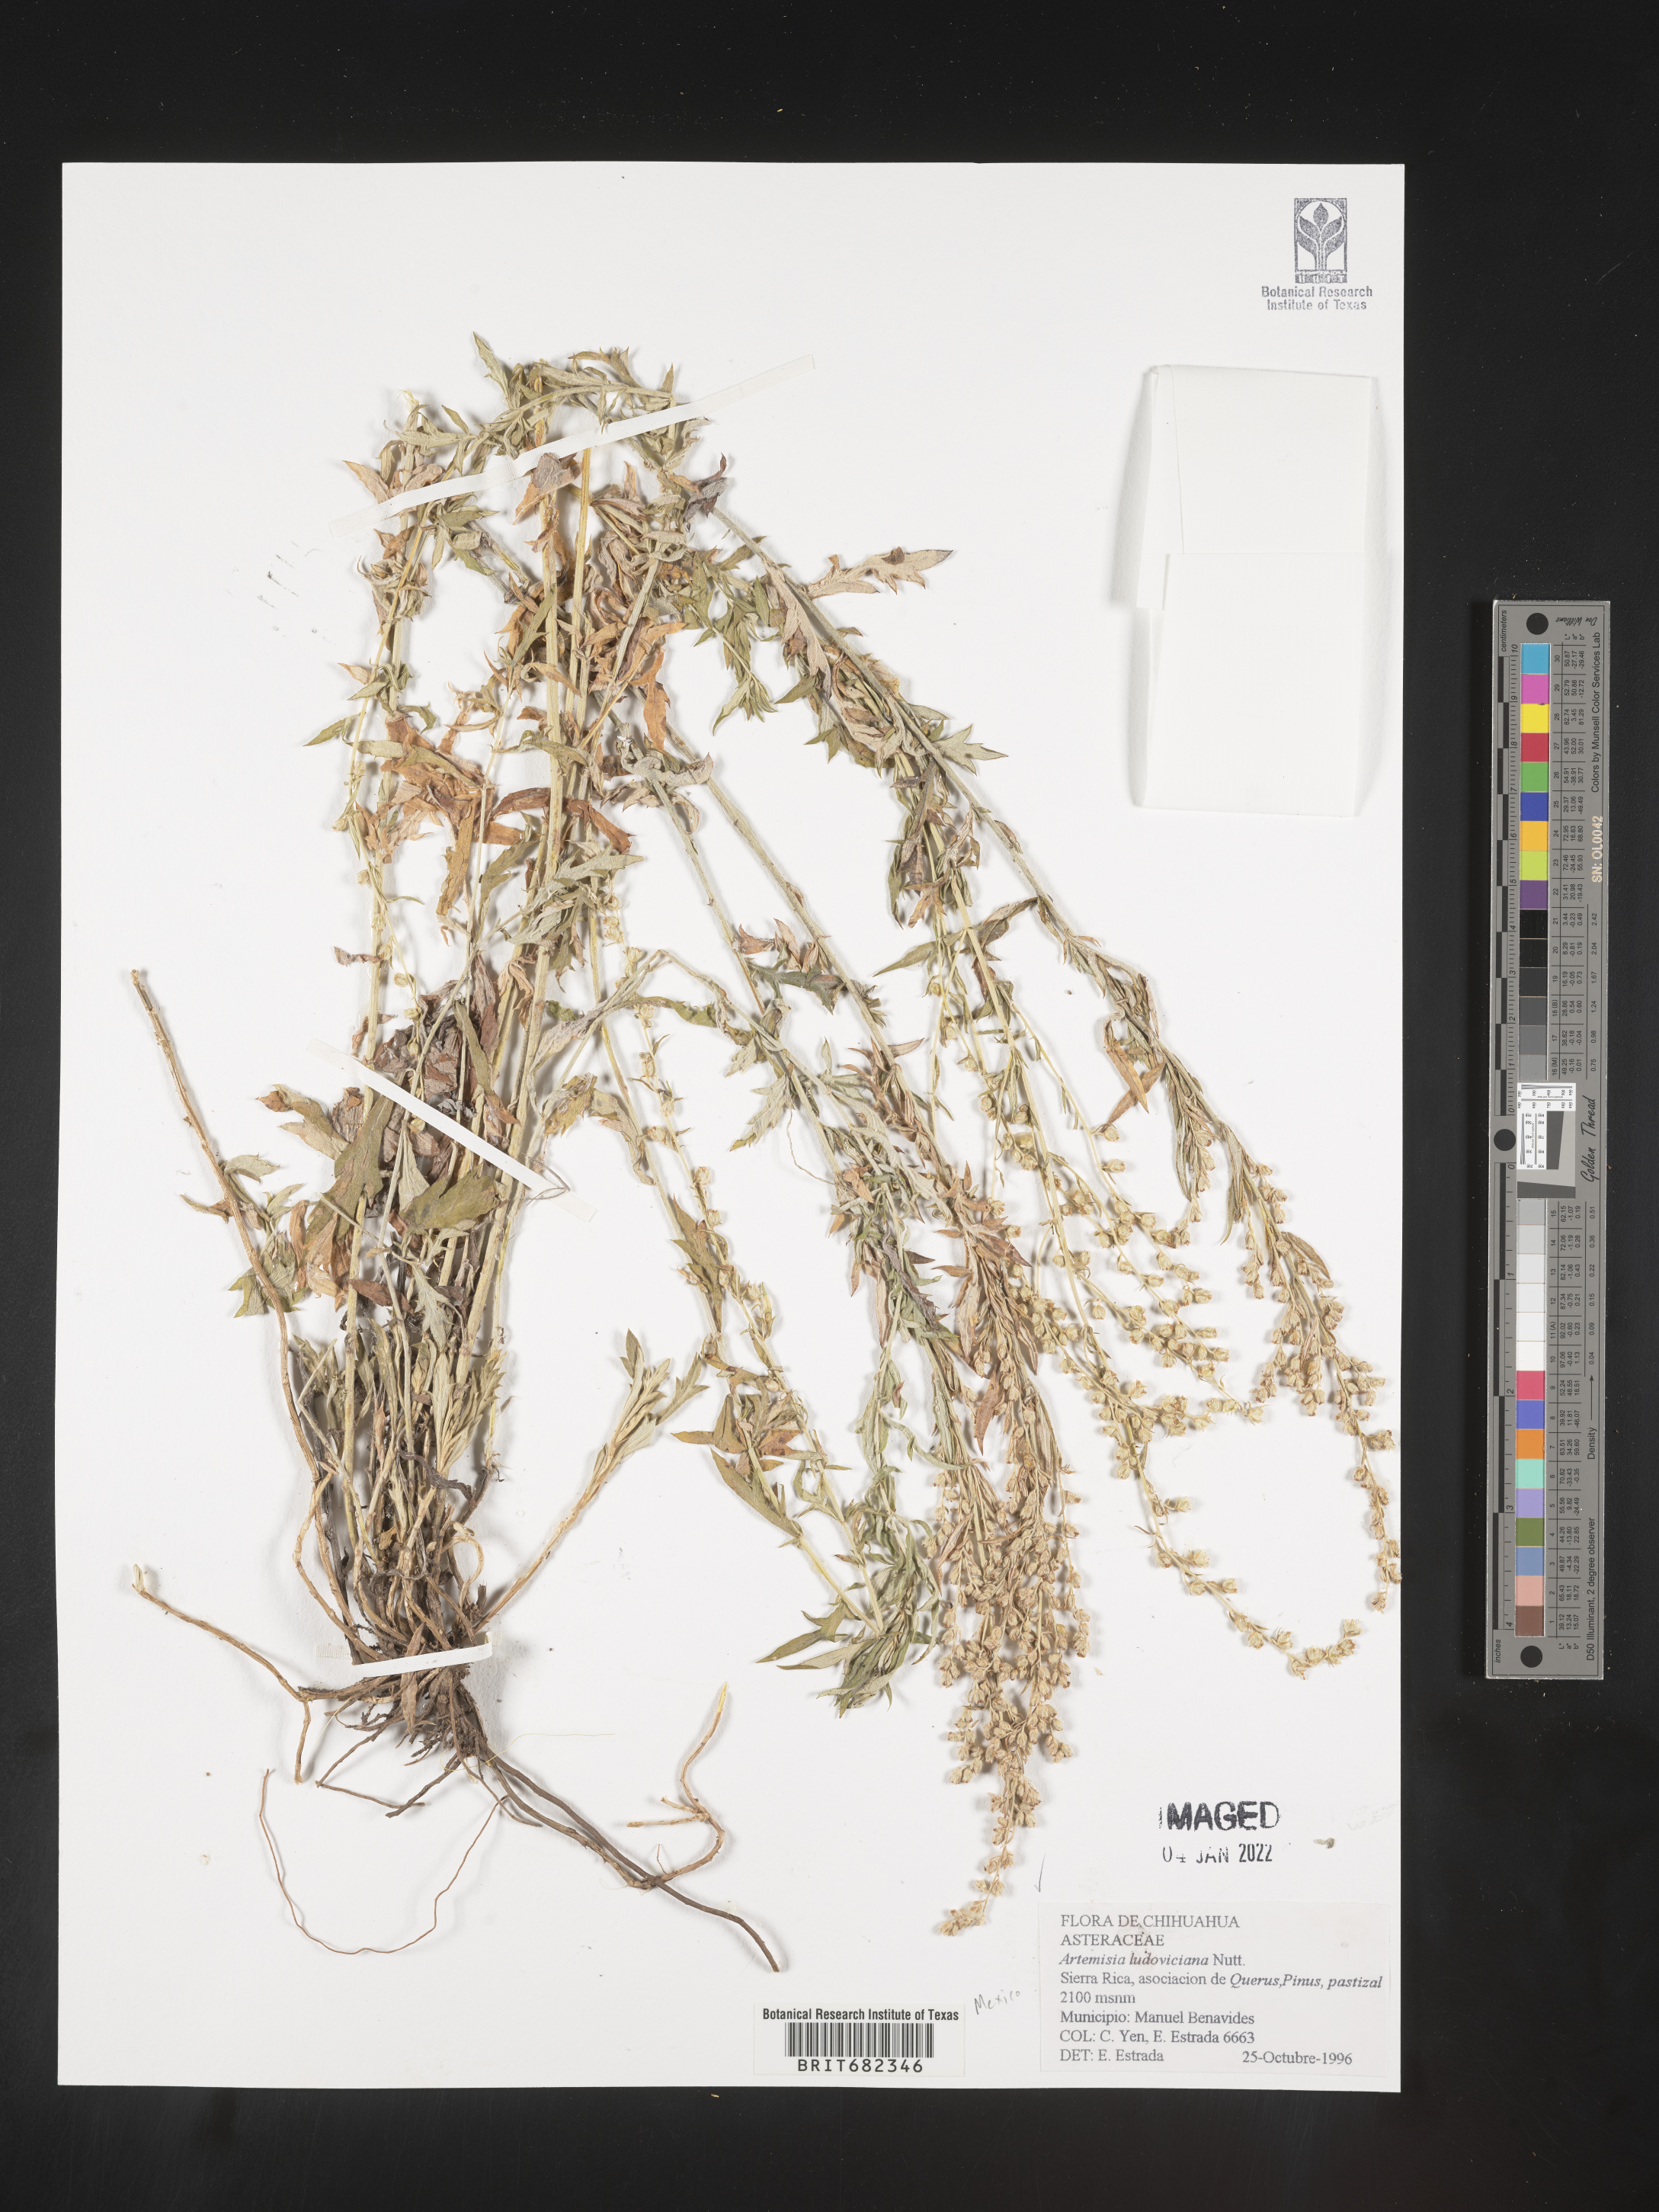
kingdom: Plantae
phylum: Tracheophyta
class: Magnoliopsida
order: Asterales
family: Asteraceae
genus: Artemisia
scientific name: Artemisia
